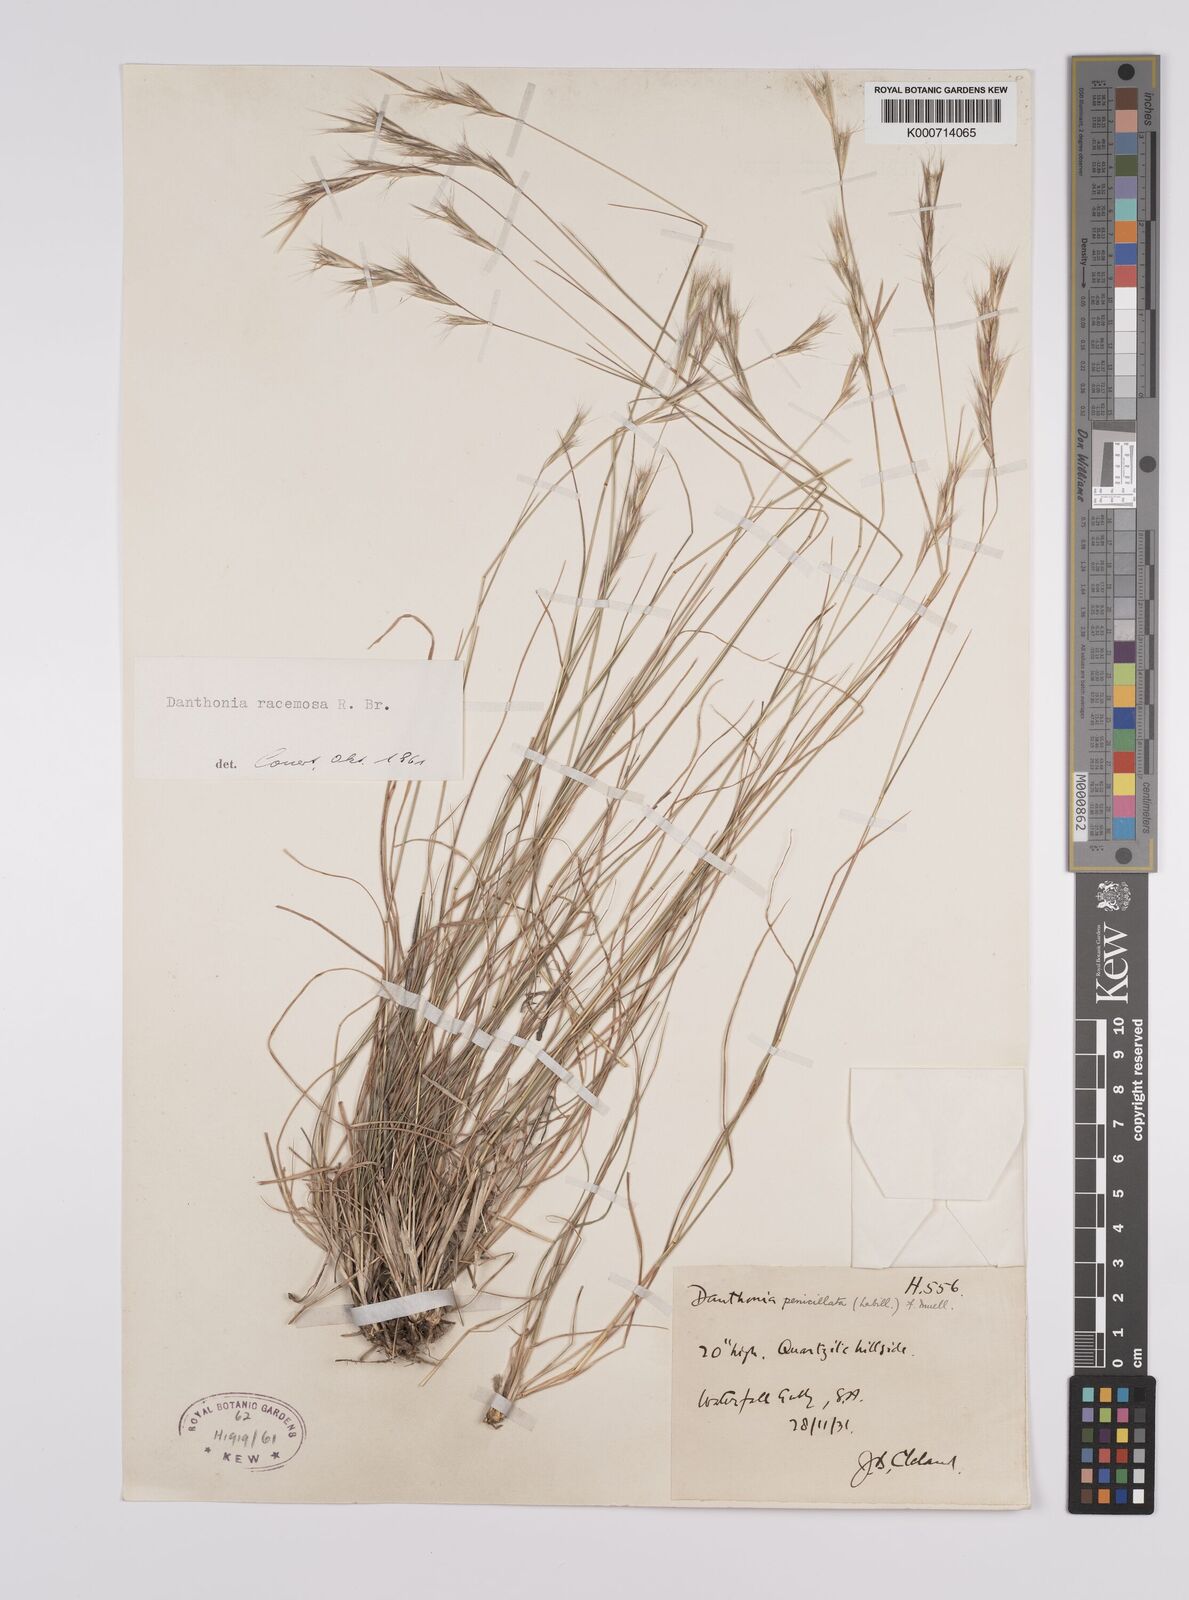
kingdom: Plantae
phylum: Tracheophyta
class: Liliopsida
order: Poales
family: Poaceae
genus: Rytidosperma
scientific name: Rytidosperma racemosum
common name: Wallaby-grass
